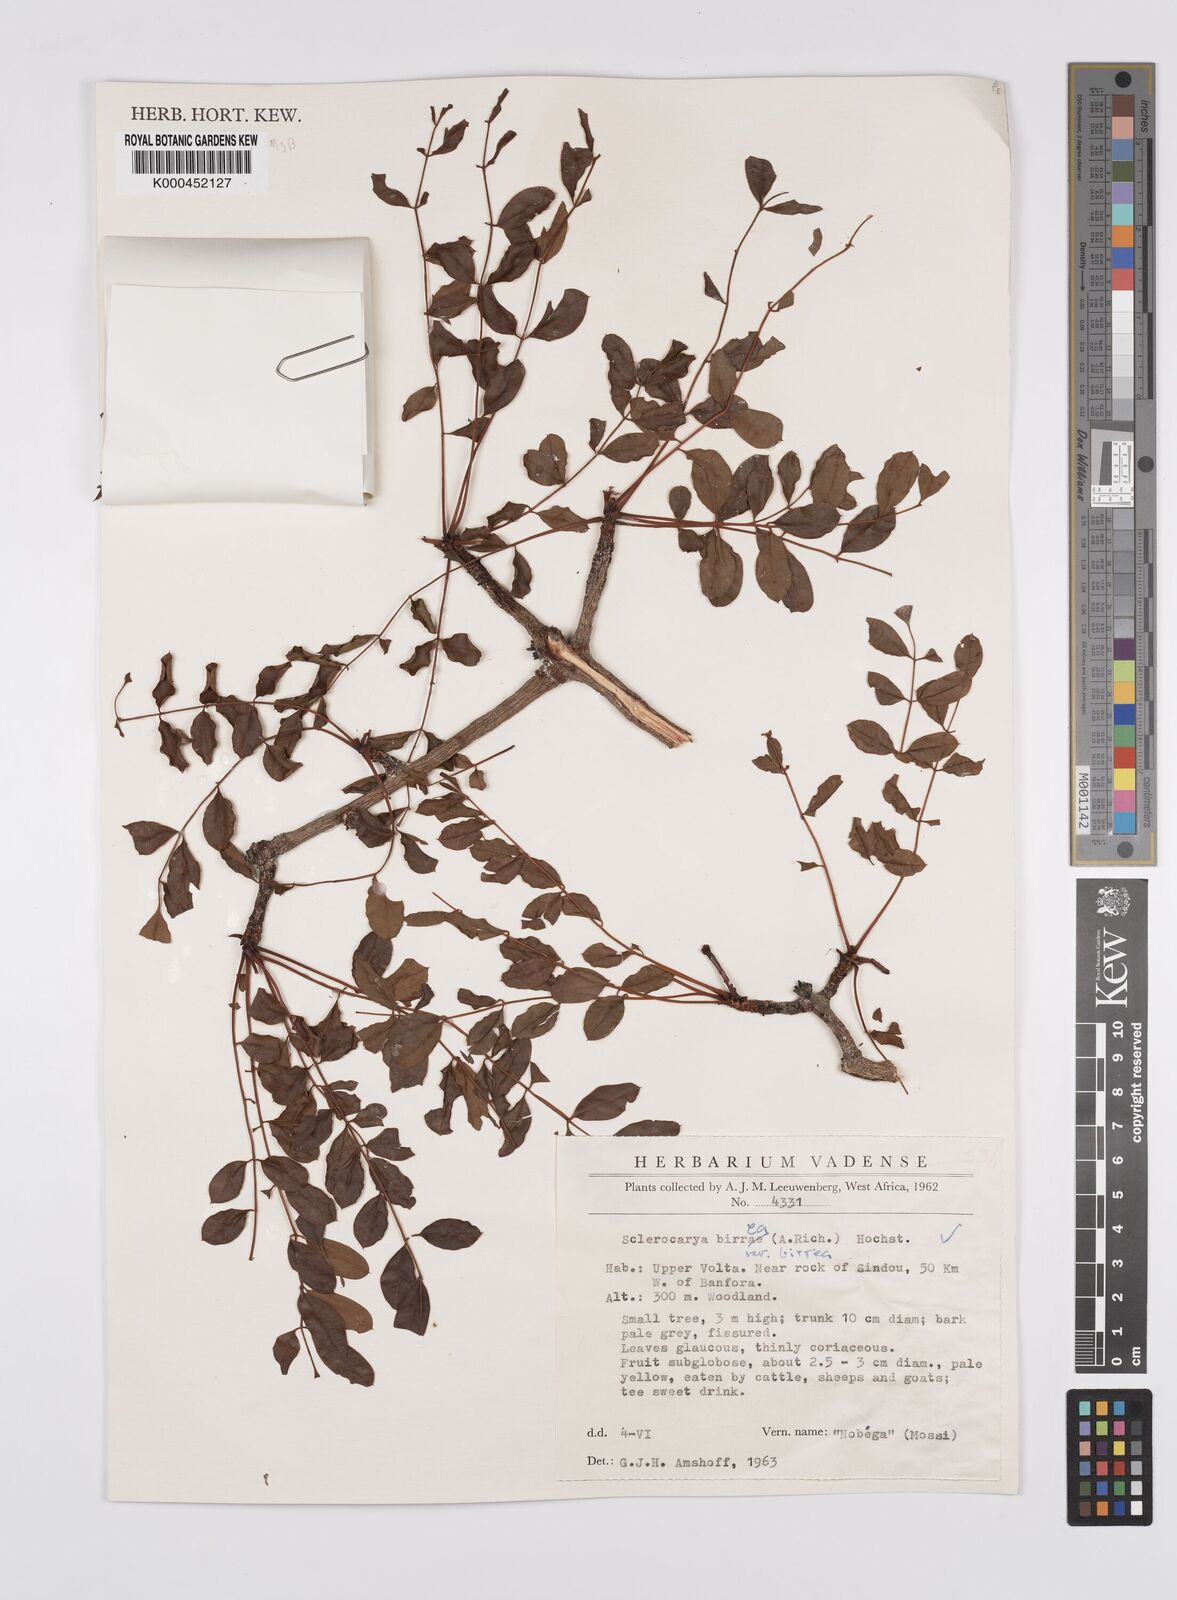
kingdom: Plantae
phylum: Tracheophyta
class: Magnoliopsida
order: Sapindales
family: Anacardiaceae
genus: Sclerocarya
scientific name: Sclerocarya birrea
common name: Marula
